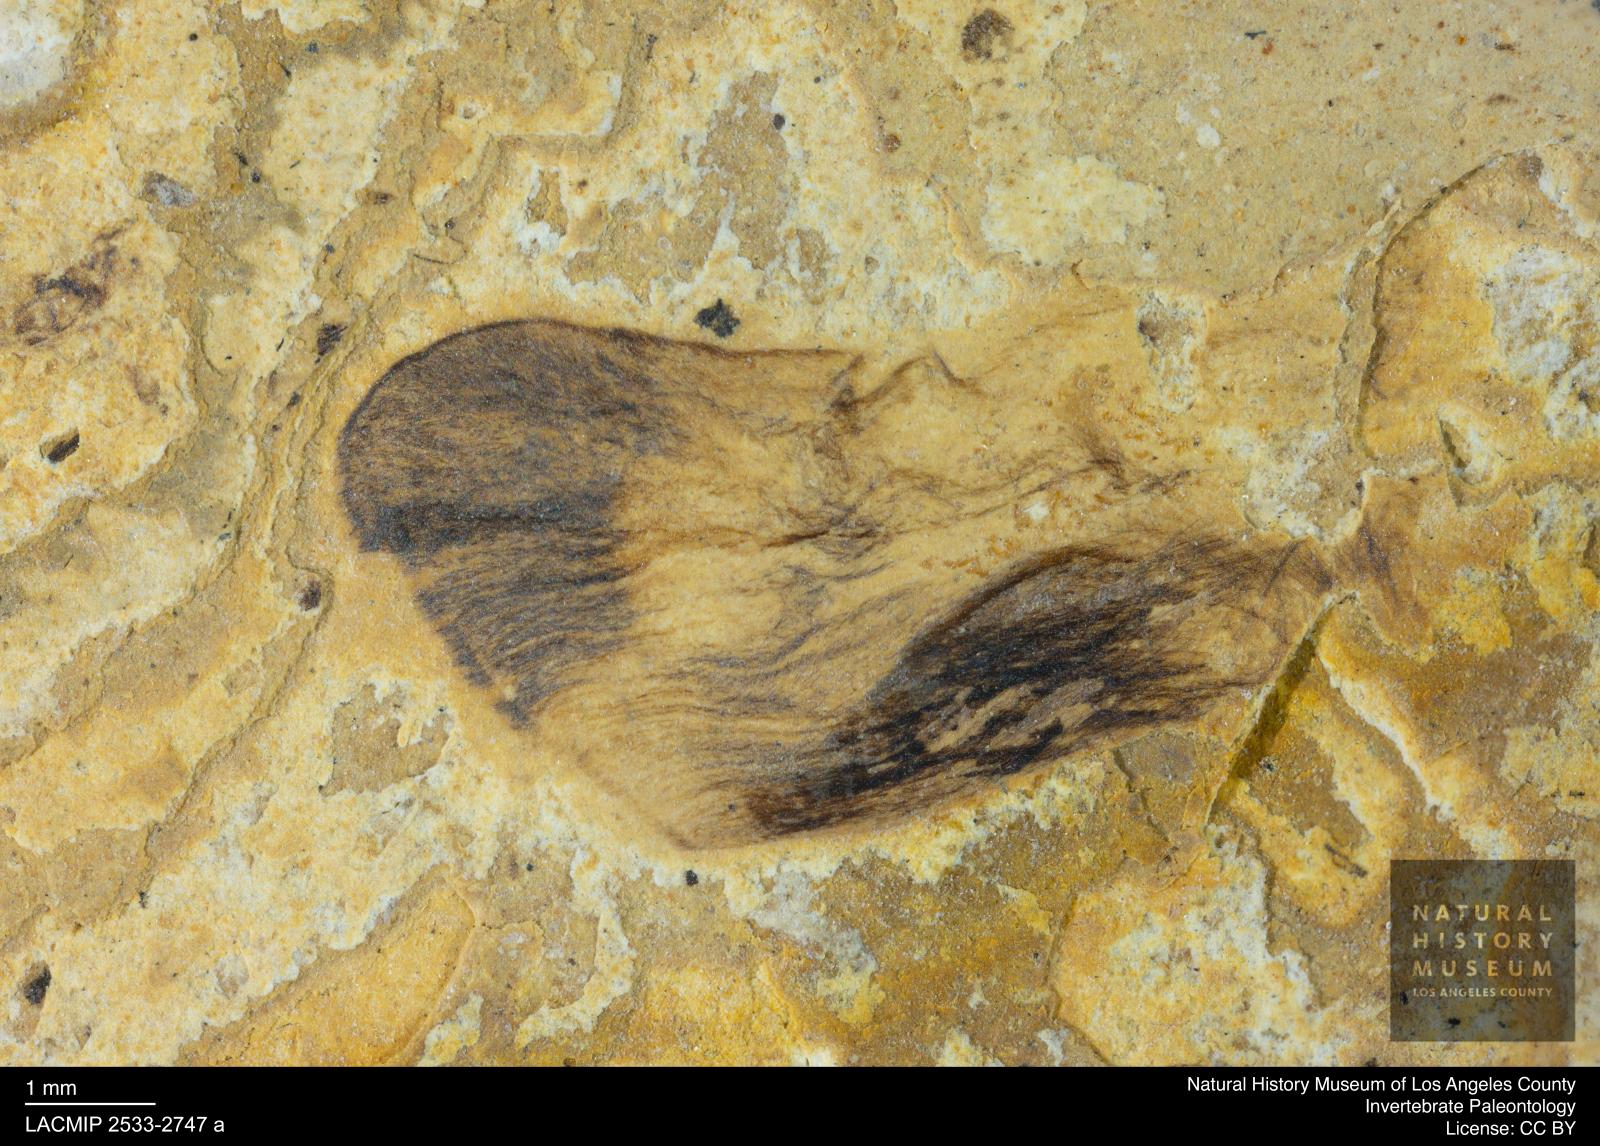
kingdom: Animalia
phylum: Arthropoda
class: Insecta
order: Trichoptera
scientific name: Trichoptera
